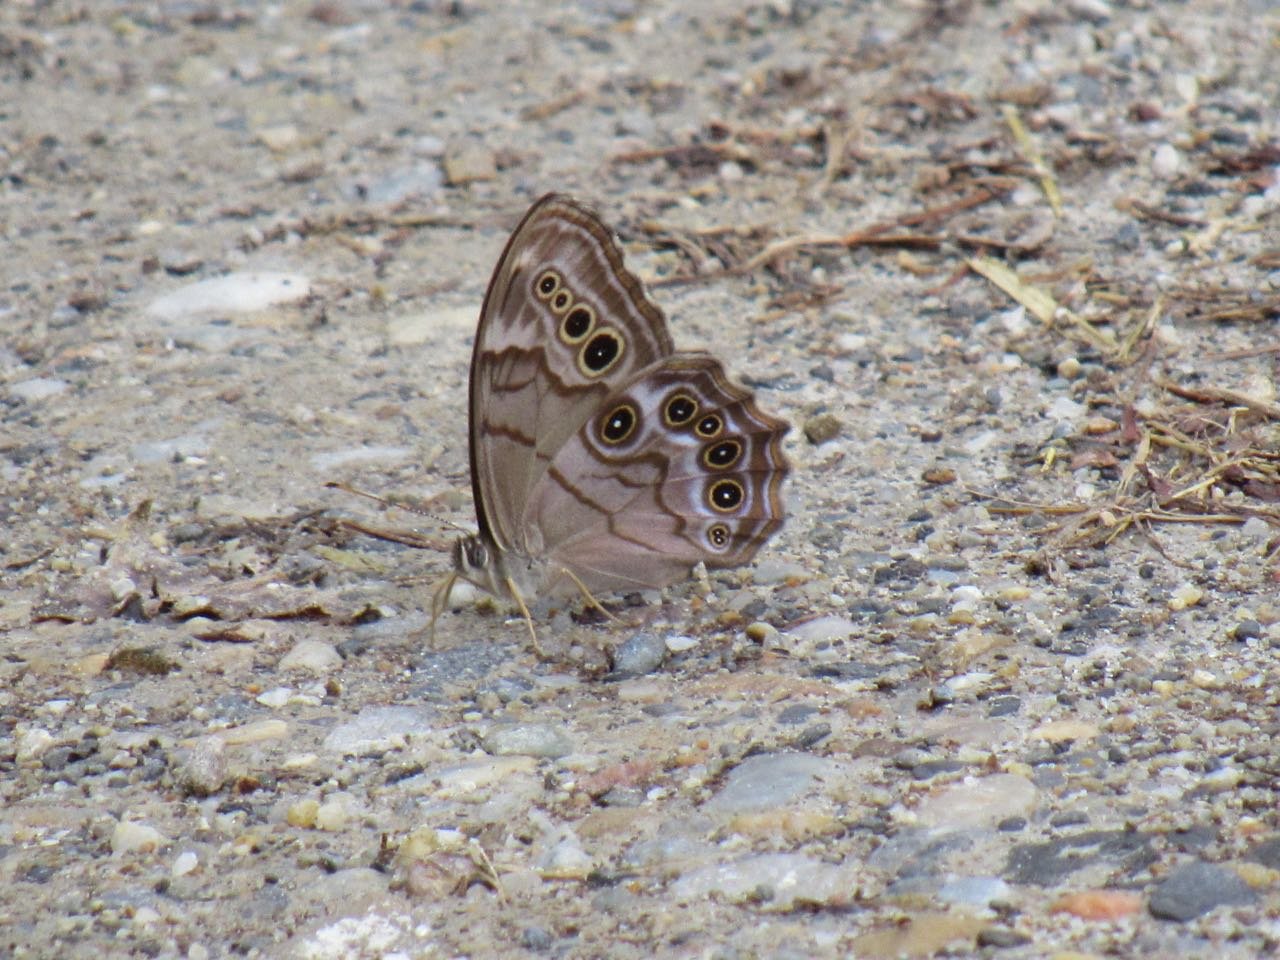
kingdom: Animalia
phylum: Arthropoda
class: Insecta
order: Lepidoptera
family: Nymphalidae
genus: Lethe
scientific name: Lethe anthedon
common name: Northern Pearly-Eye
